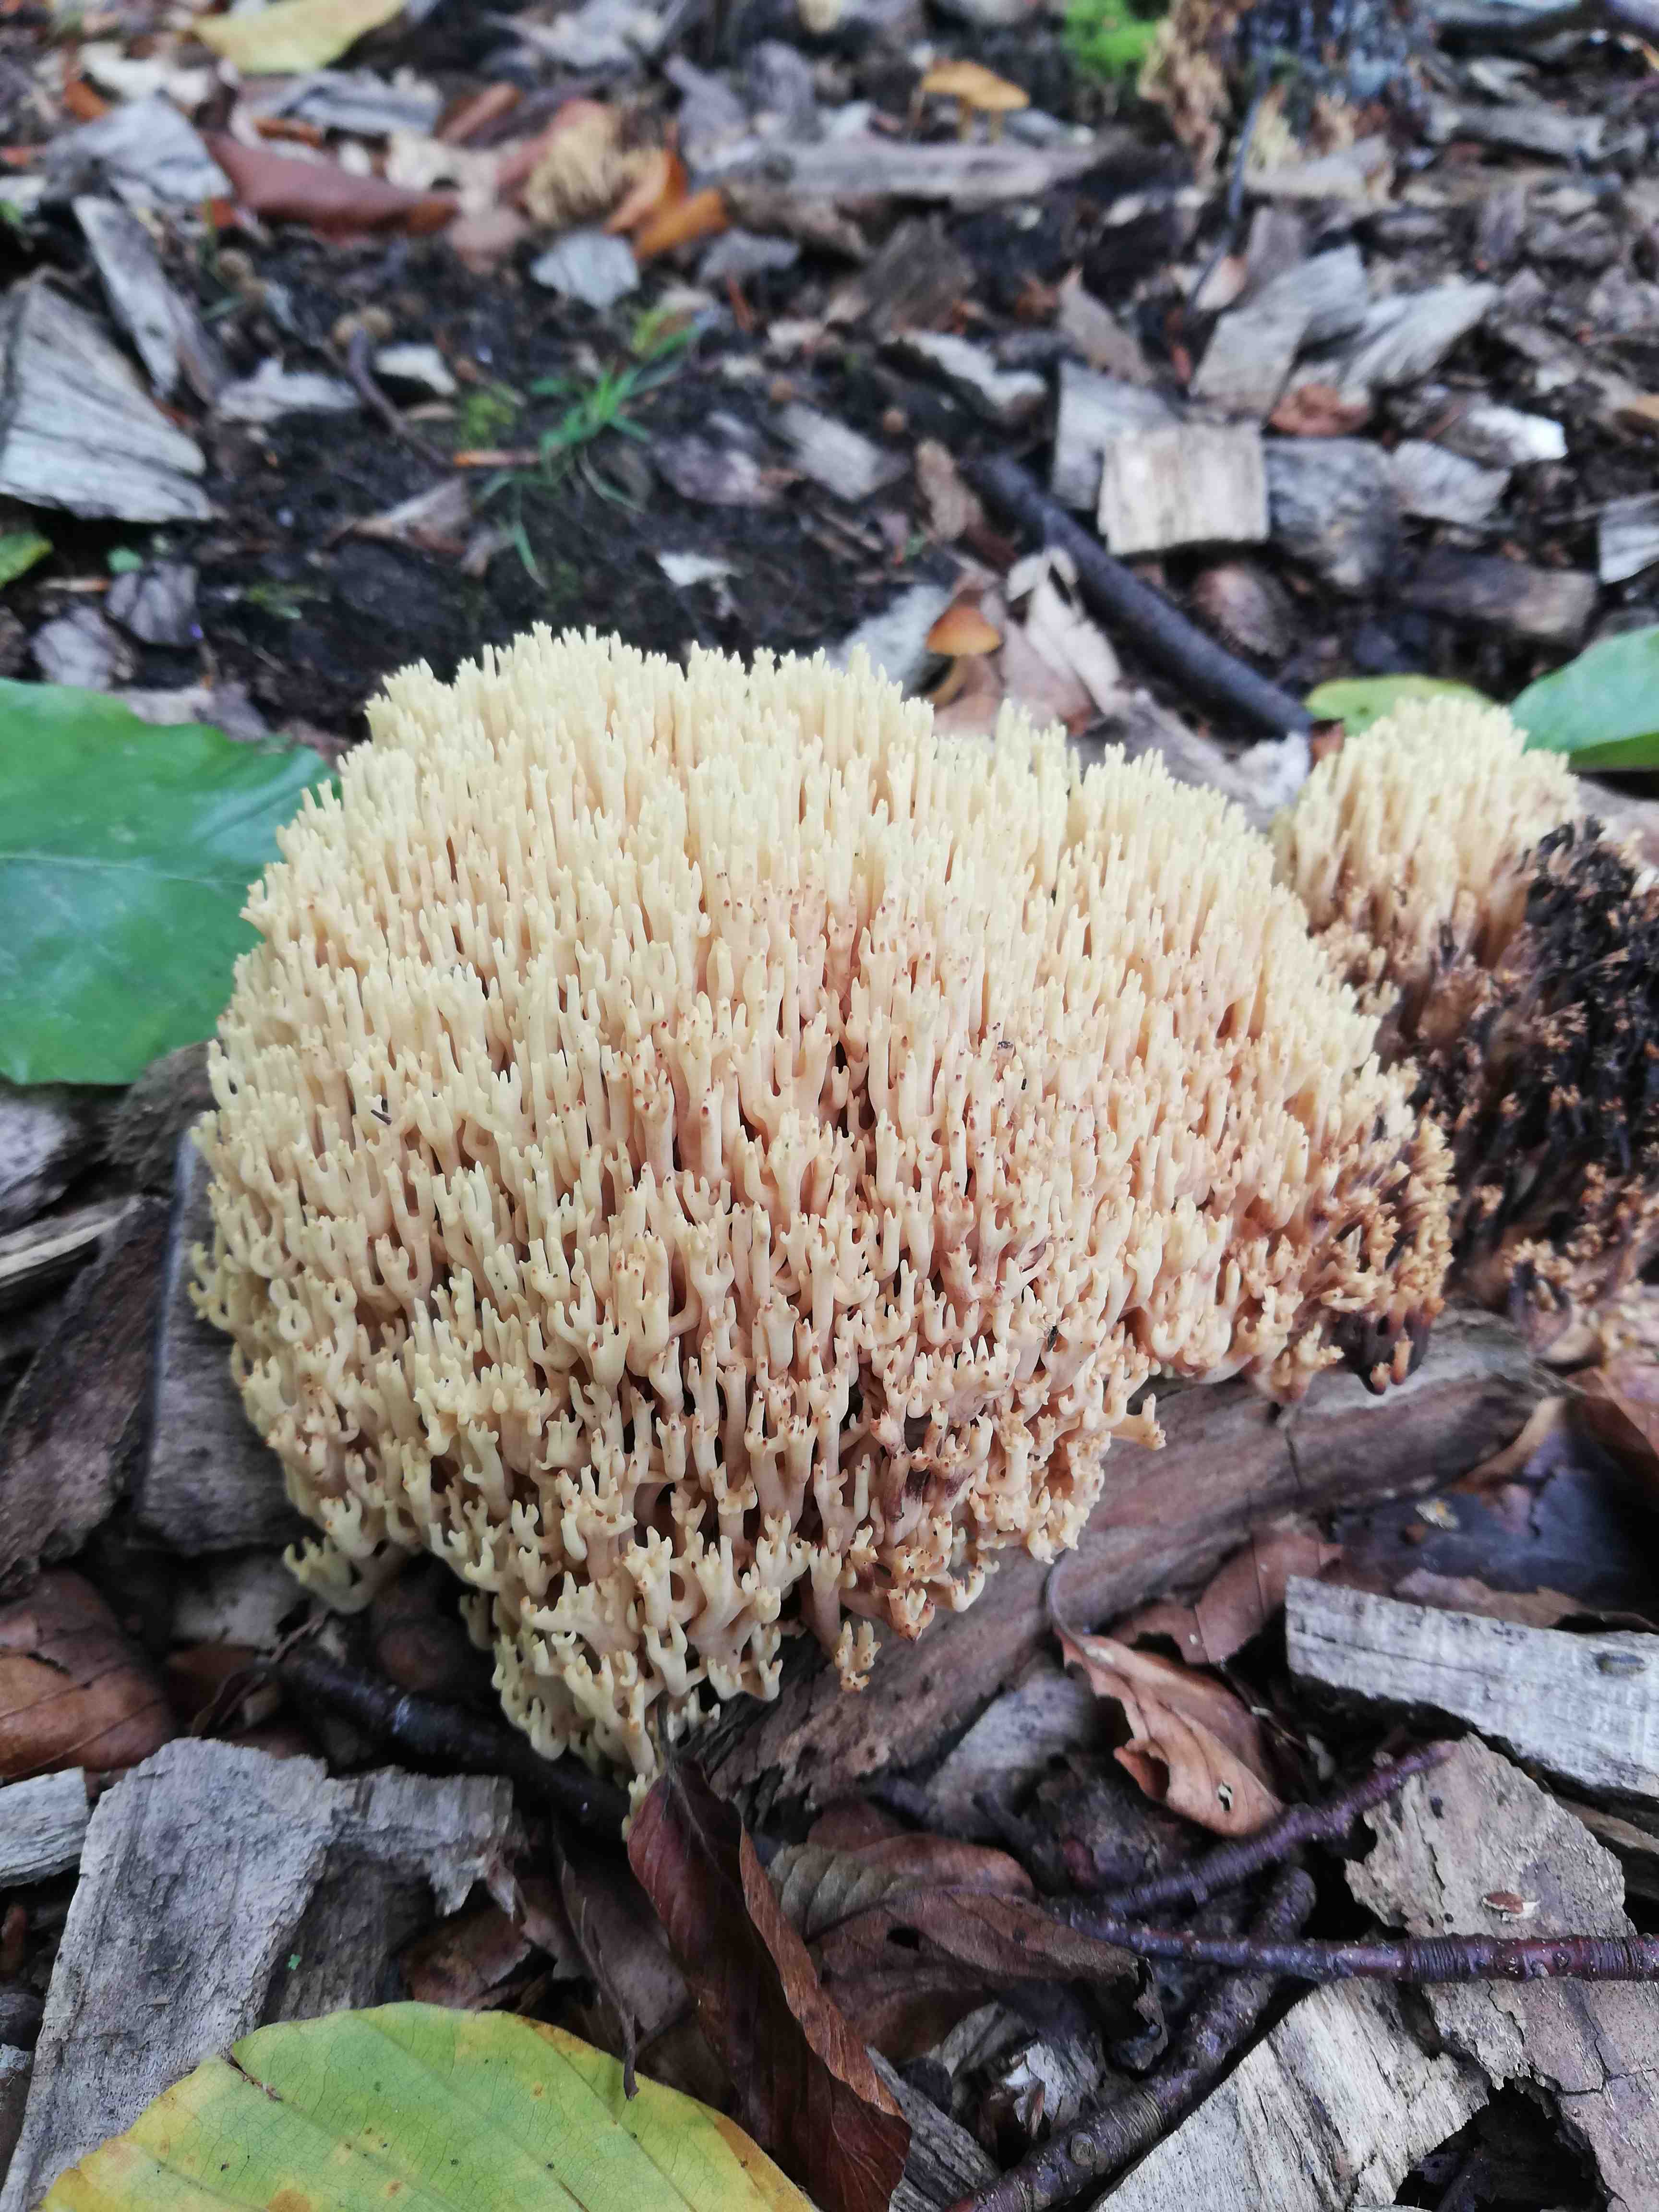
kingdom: Fungi
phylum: Basidiomycota
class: Agaricomycetes
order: Gomphales
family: Gomphaceae
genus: Ramaria
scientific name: Ramaria stricta
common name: rank koralsvamp
